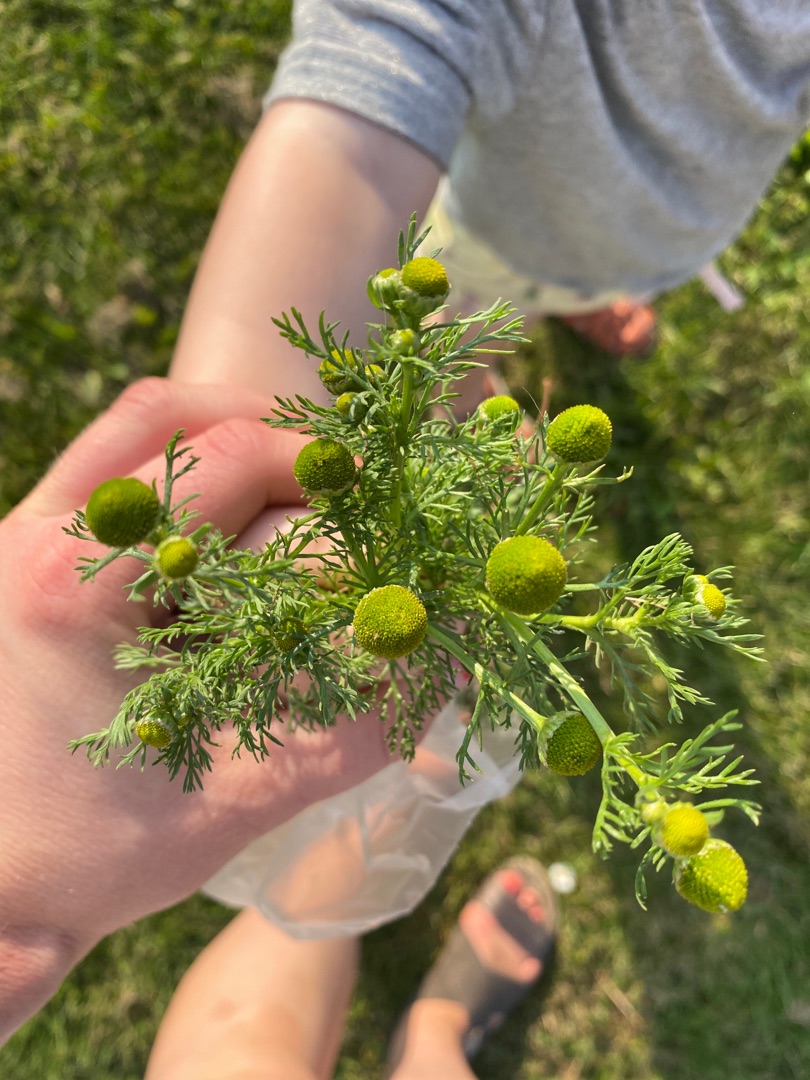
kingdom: Plantae
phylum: Tracheophyta
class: Magnoliopsida
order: Asterales
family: Asteraceae
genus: Matricaria
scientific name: Matricaria discoidea
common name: Skive-kamille
